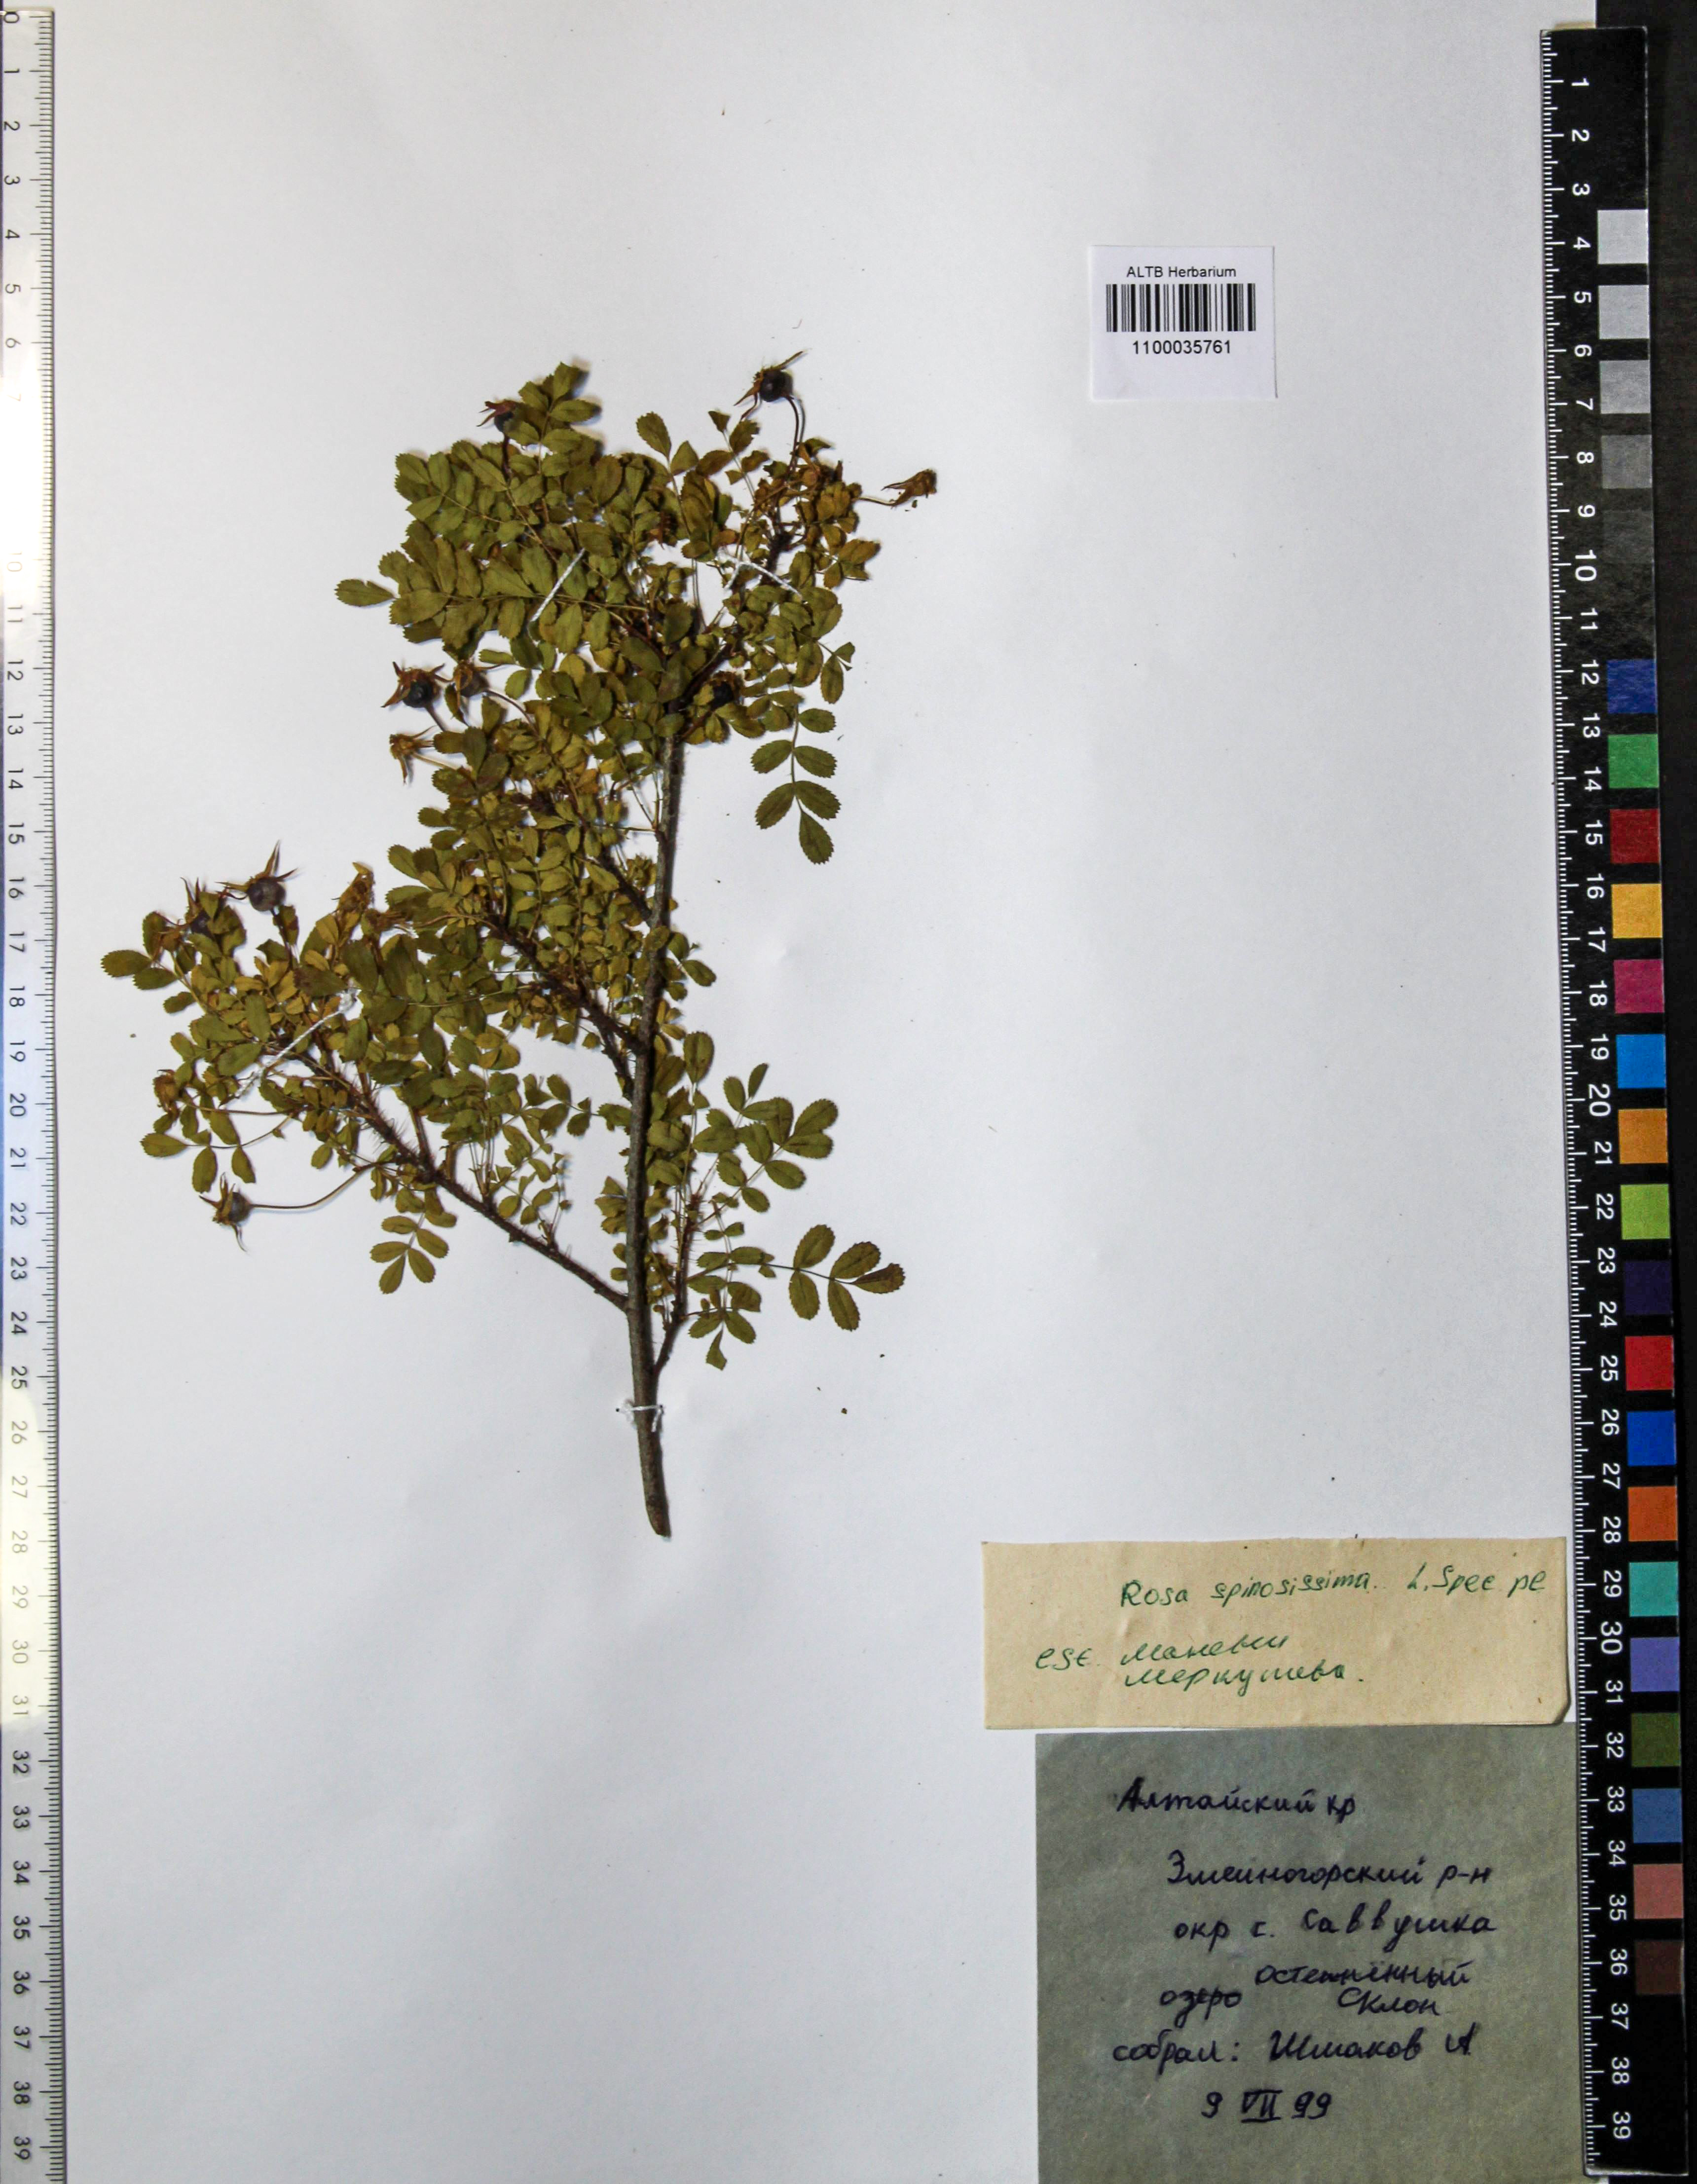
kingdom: Plantae
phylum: Tracheophyta
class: Magnoliopsida
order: Rosales
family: Rosaceae
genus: Rosa
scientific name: Rosa spinosissima
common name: Burnet rose
